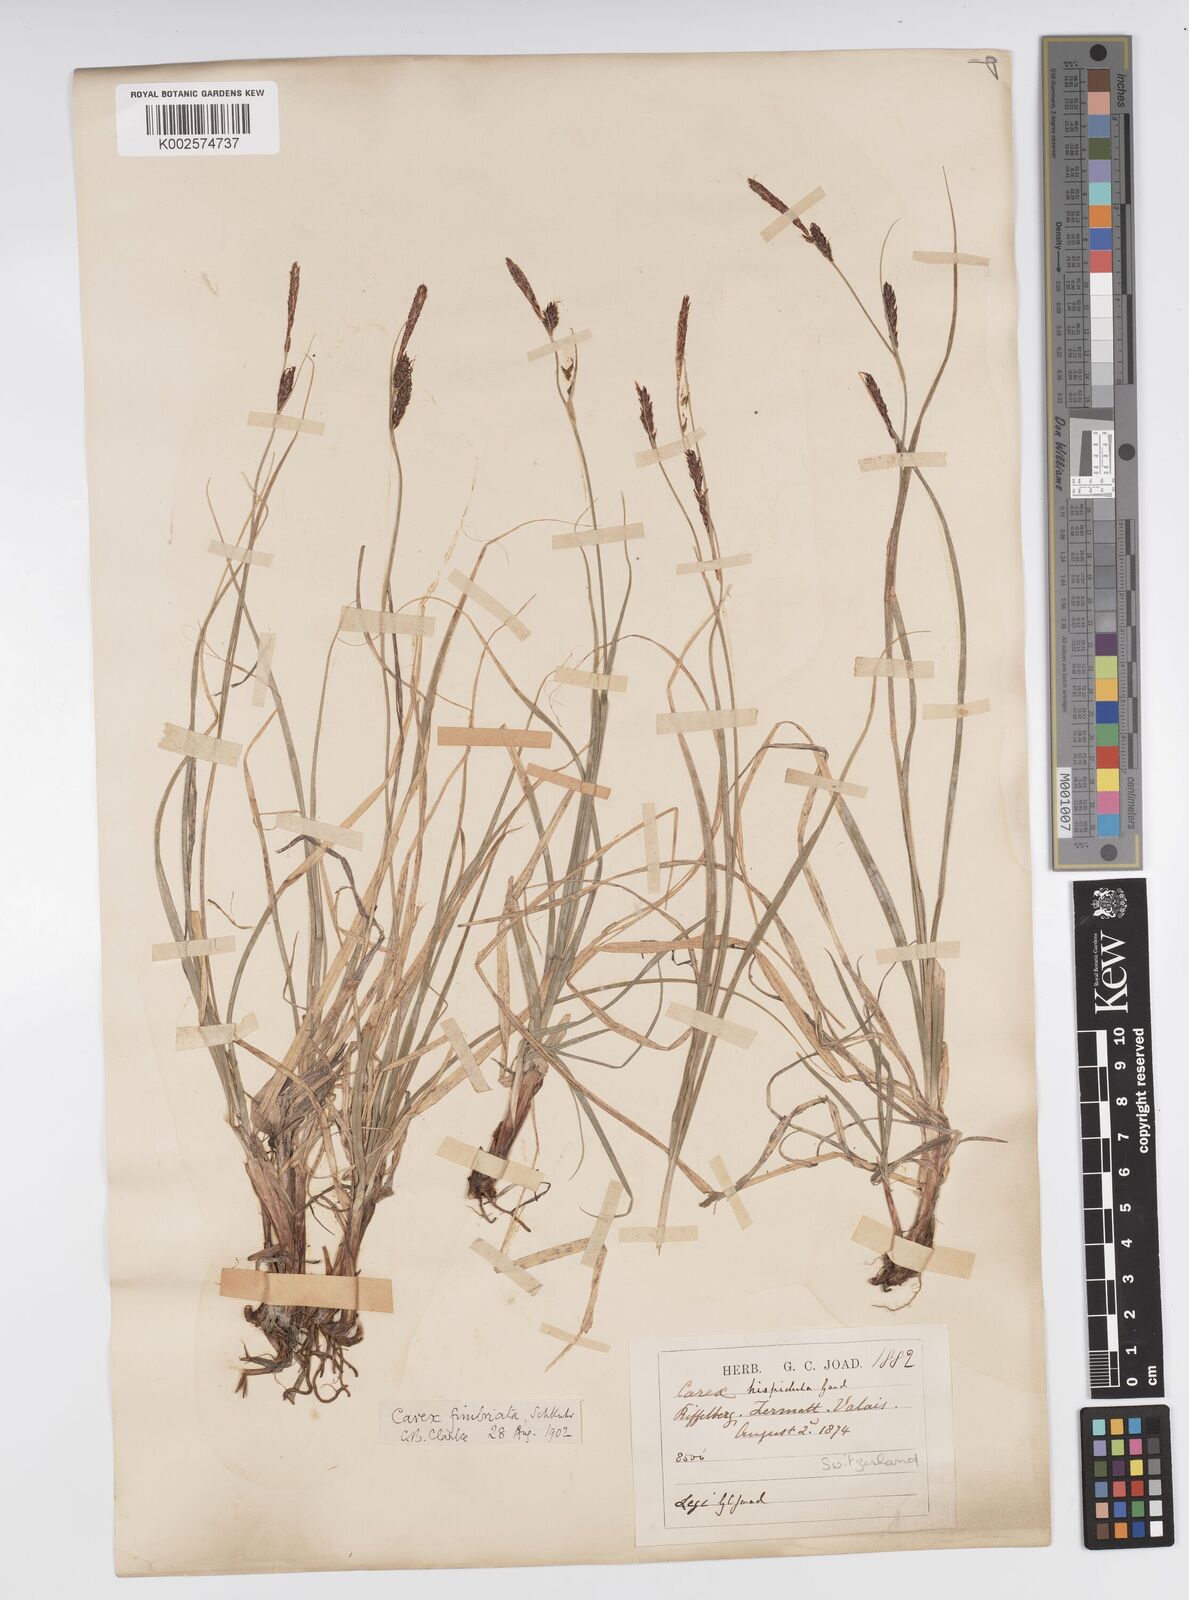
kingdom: Plantae
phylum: Tracheophyta
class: Liliopsida
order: Poales
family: Cyperaceae
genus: Carex
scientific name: Carex fimbriata
